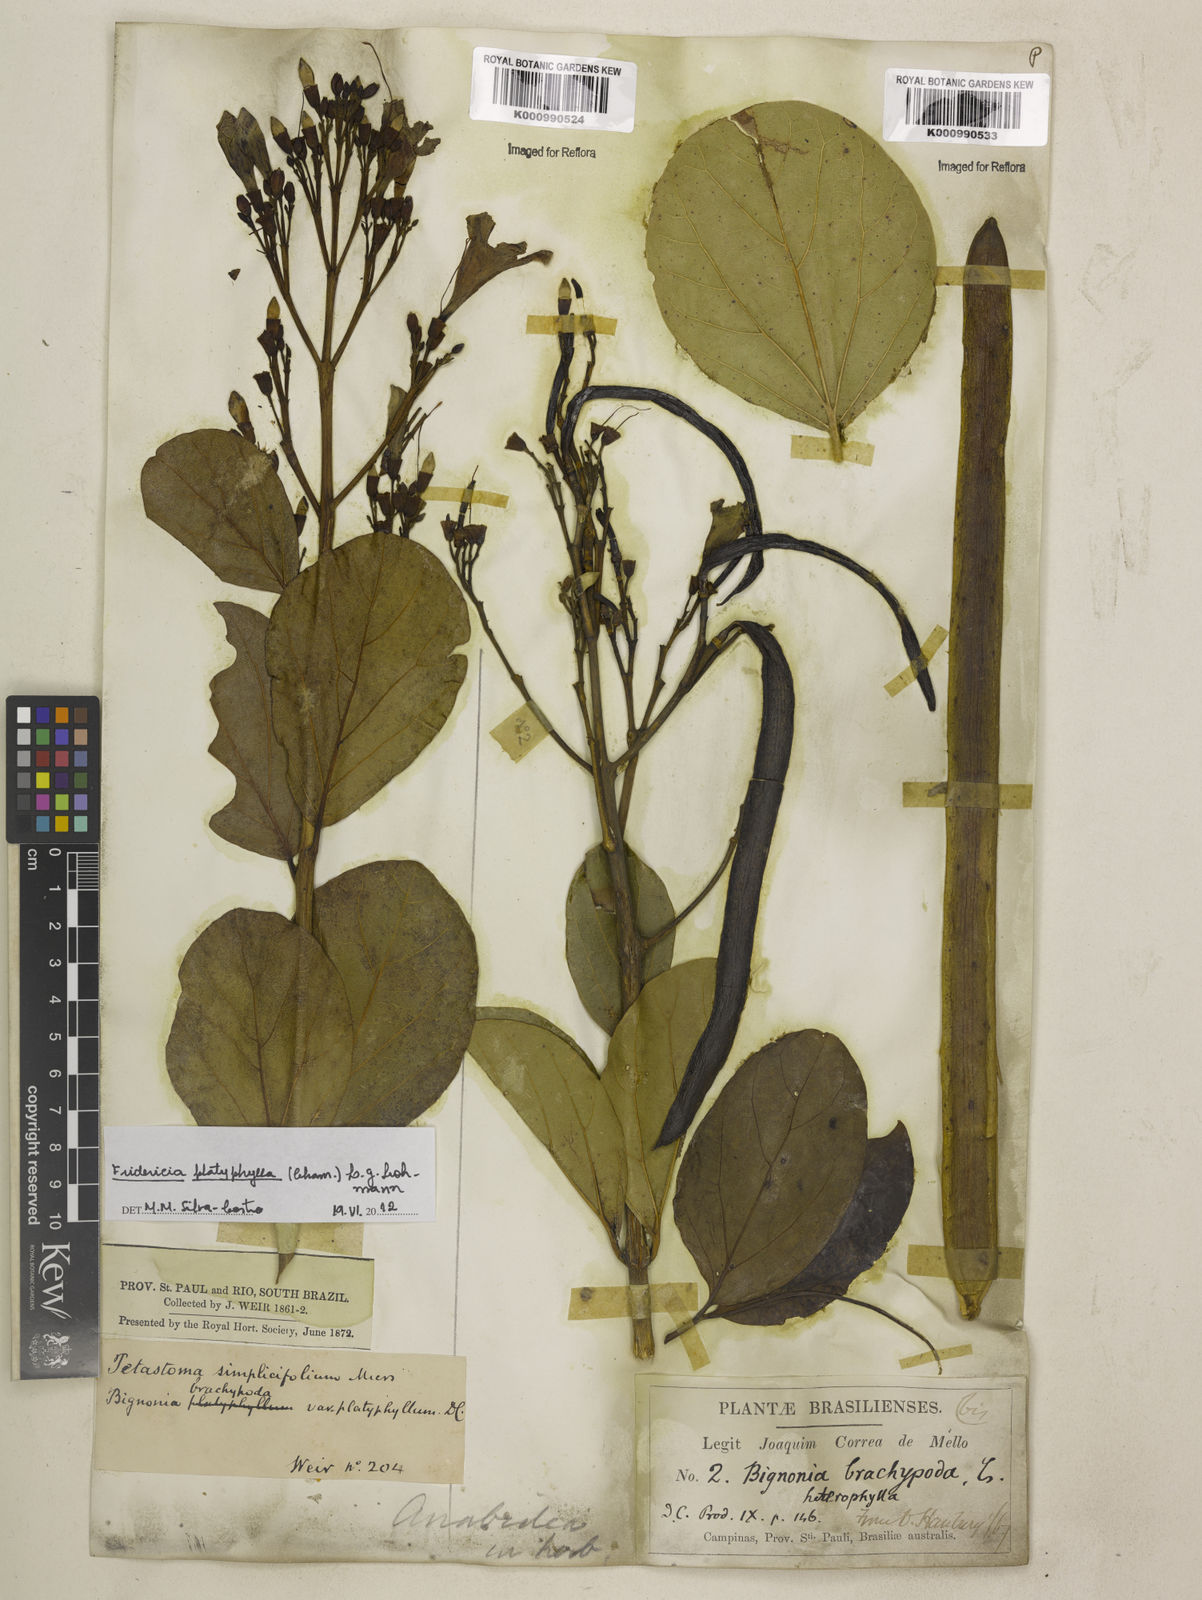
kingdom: Plantae
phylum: Tracheophyta
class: Magnoliopsida
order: Lamiales
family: Bignoniaceae
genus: Fridericia
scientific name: Fridericia platyphylla
